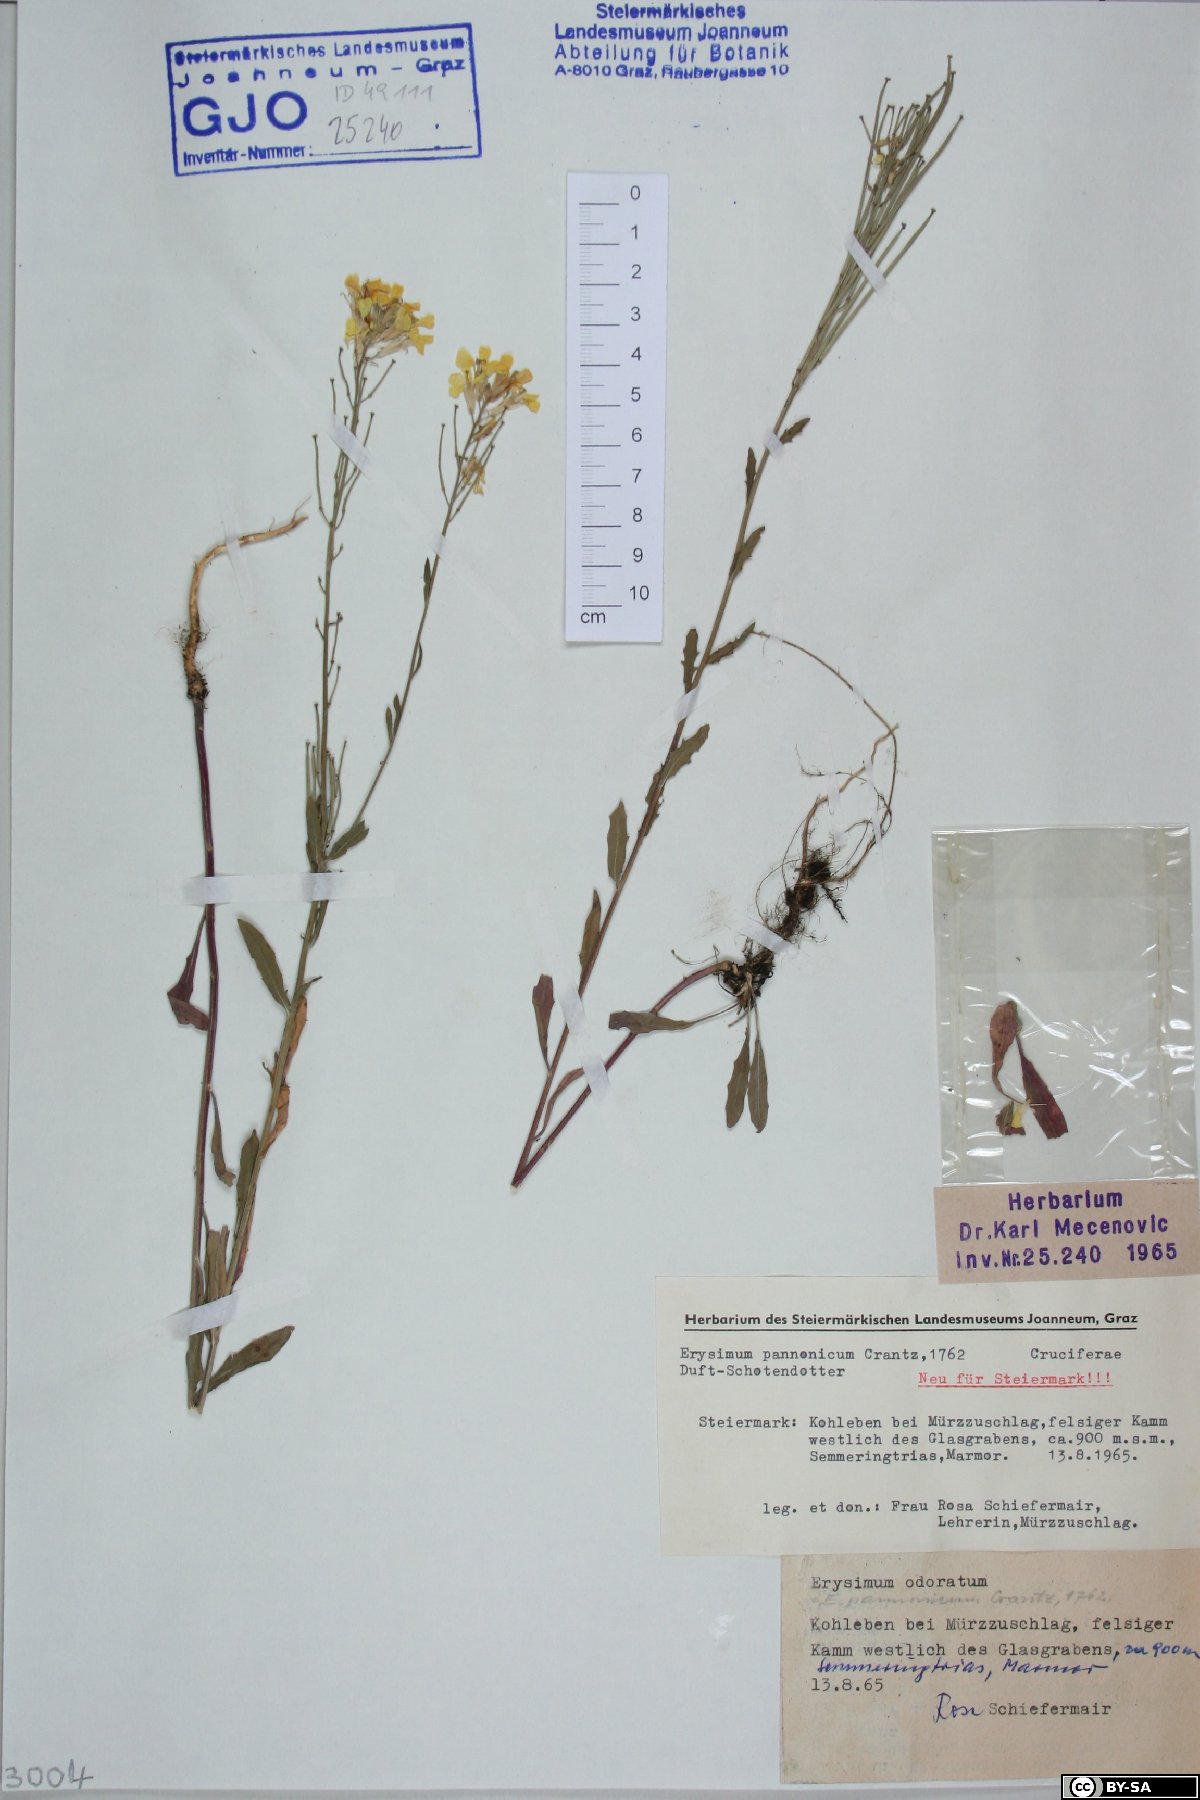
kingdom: Plantae
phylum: Tracheophyta
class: Magnoliopsida
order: Brassicales
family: Brassicaceae
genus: Erysimum
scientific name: Erysimum odoratum
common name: Smelly wallflower
